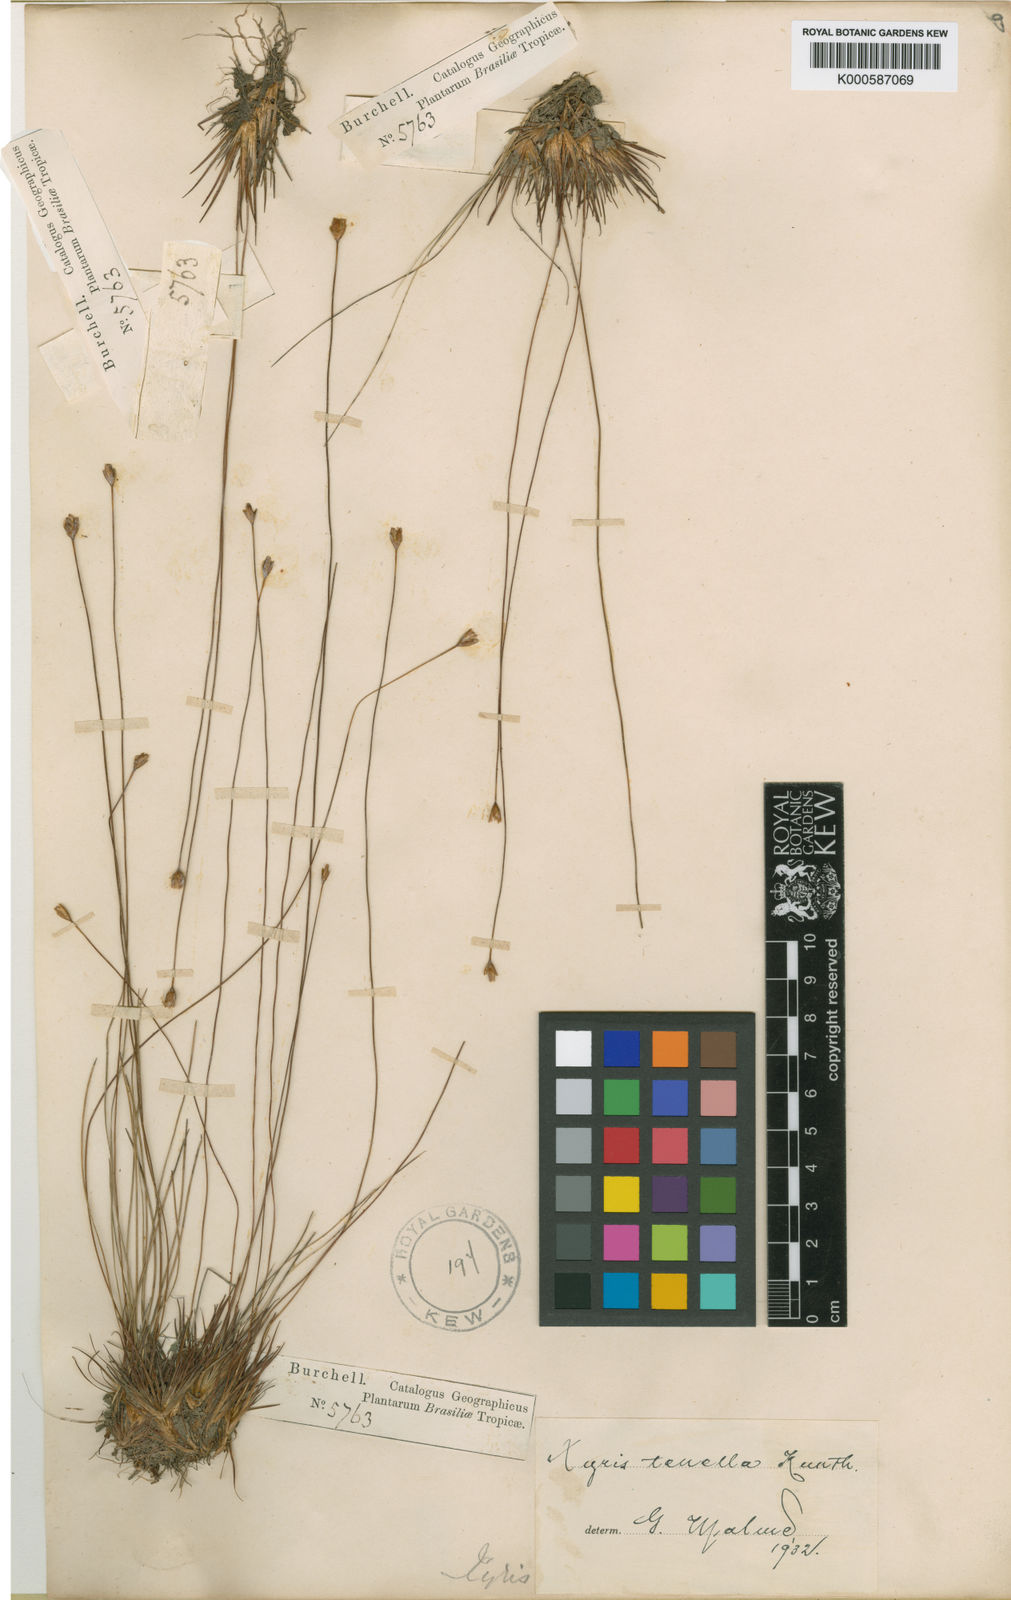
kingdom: Plantae
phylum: Tracheophyta
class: Liliopsida
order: Poales
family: Xyridaceae
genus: Xyris
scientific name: Xyris tenella
